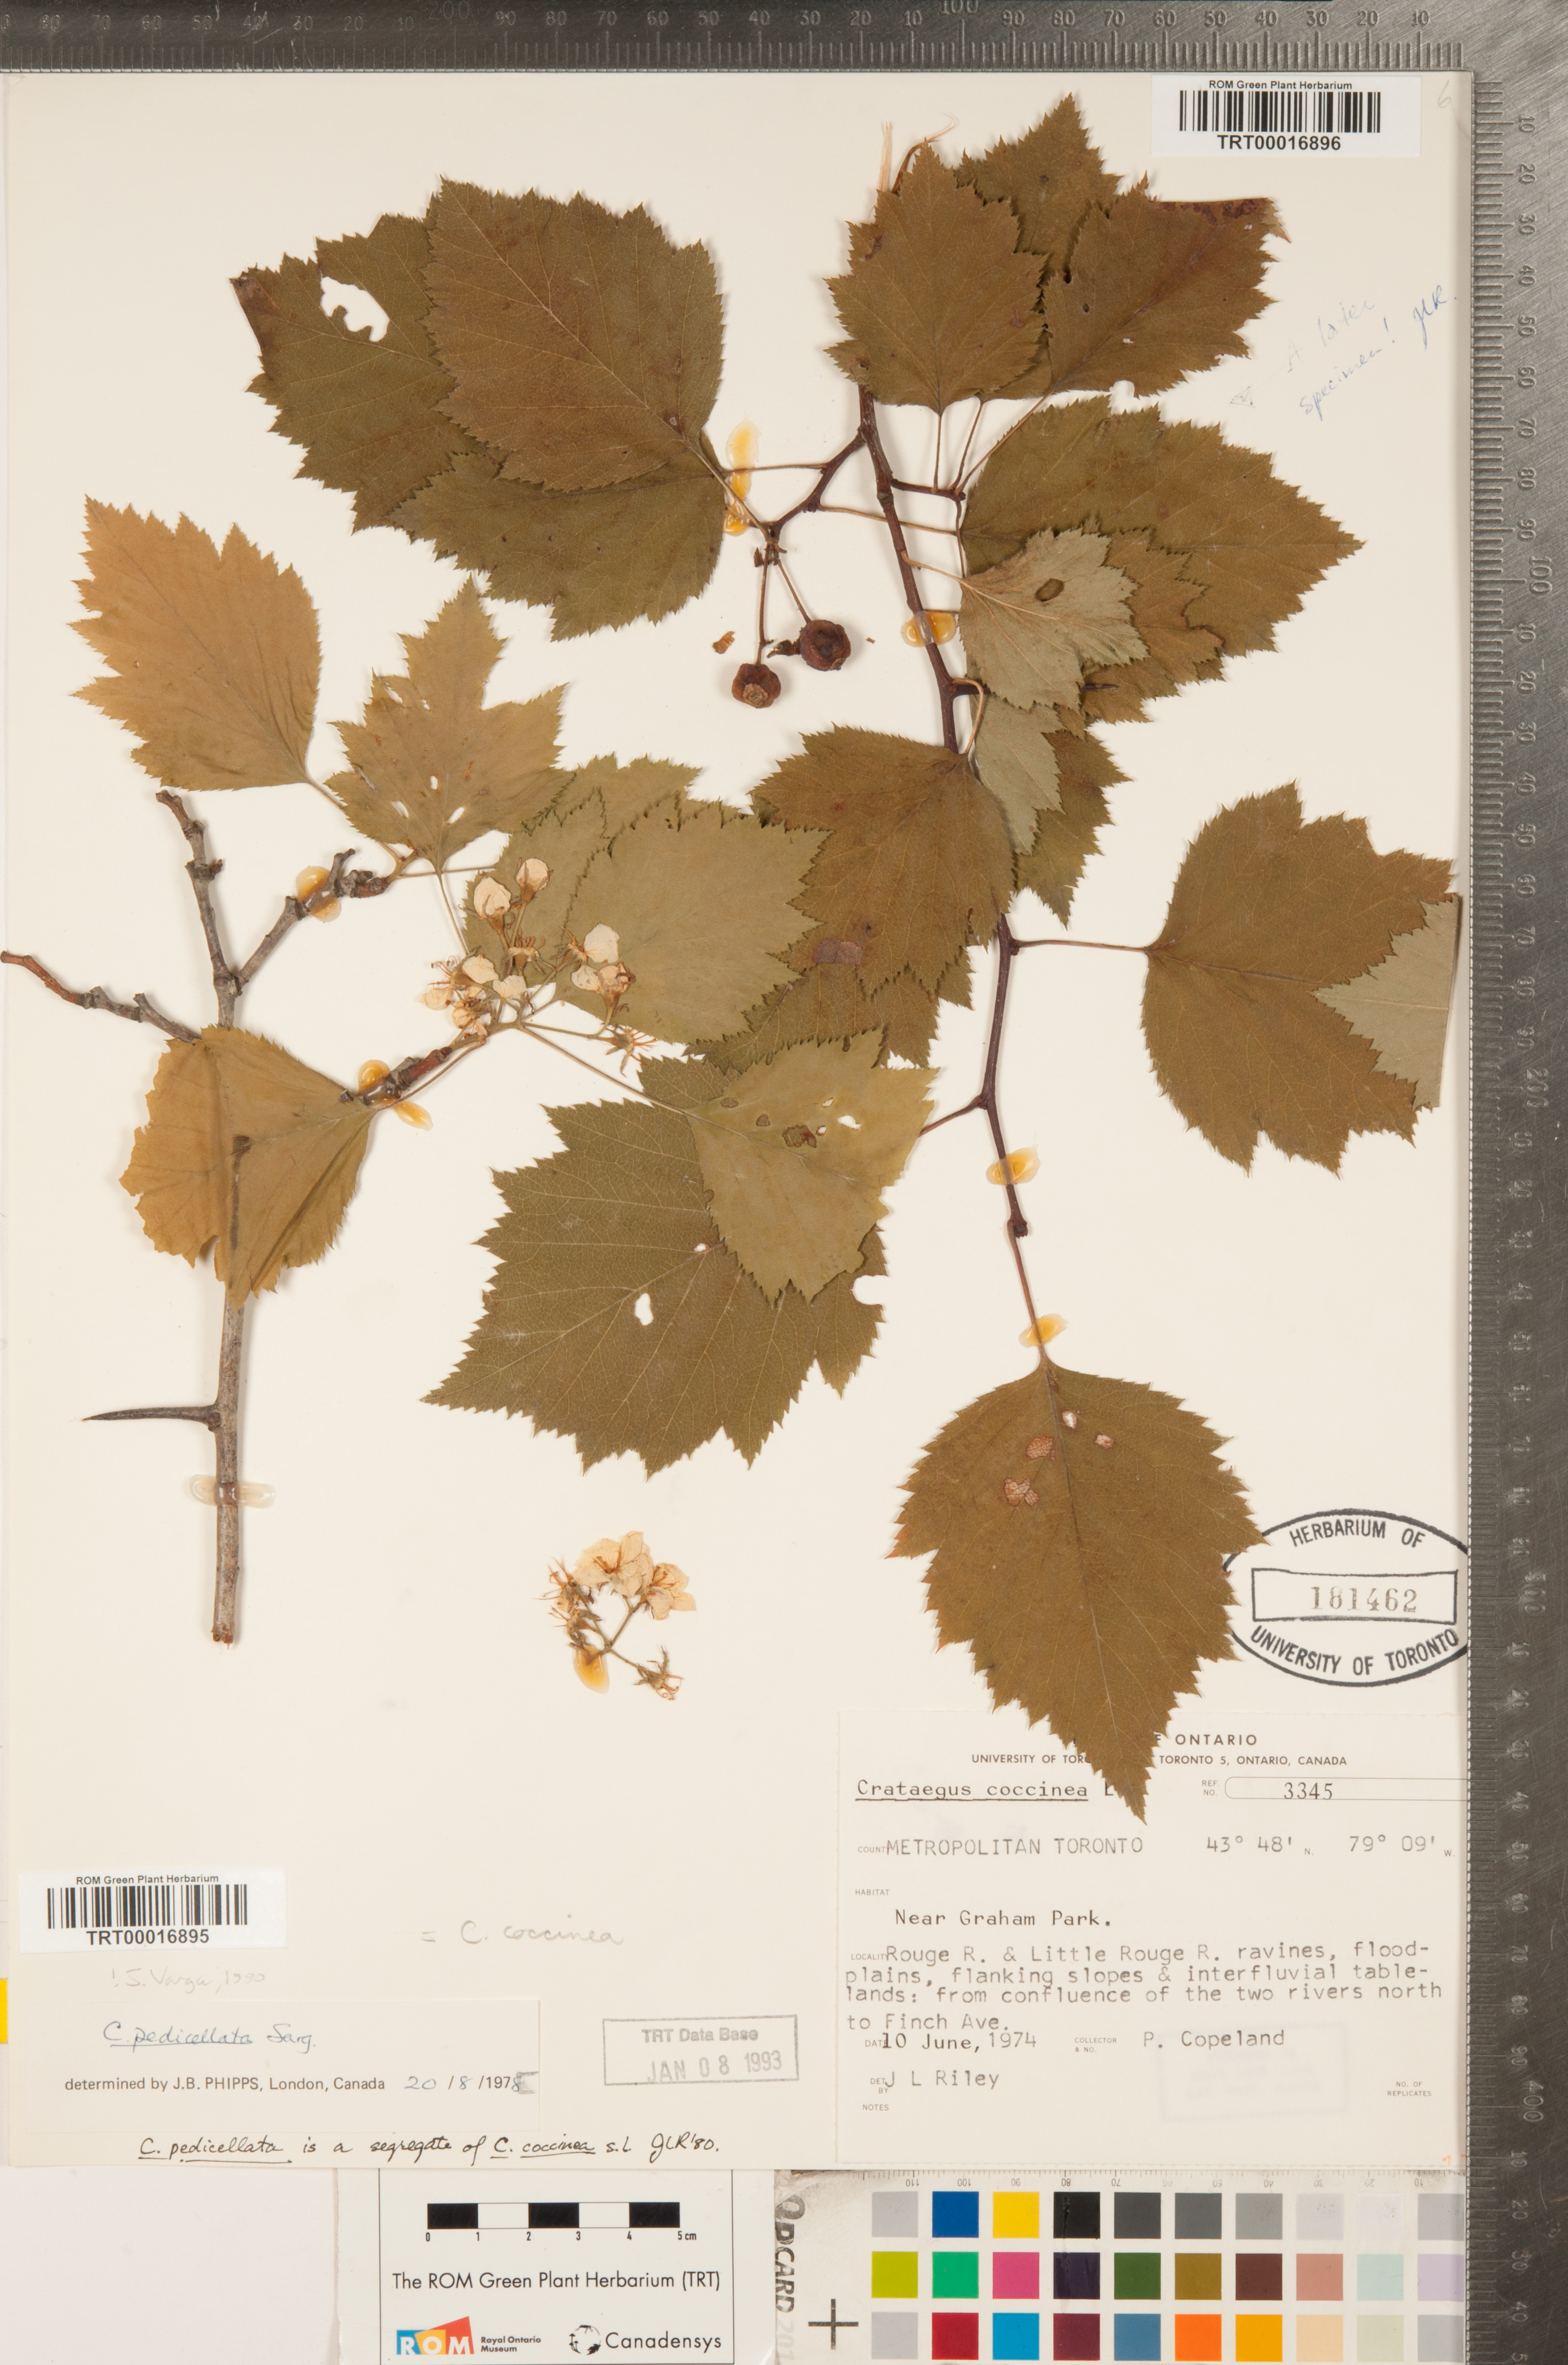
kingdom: Plantae
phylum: Tracheophyta
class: Magnoliopsida
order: Rosales
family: Rosaceae
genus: Crataegus
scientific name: Crataegus coccinea
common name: Scarlet hawthorn
